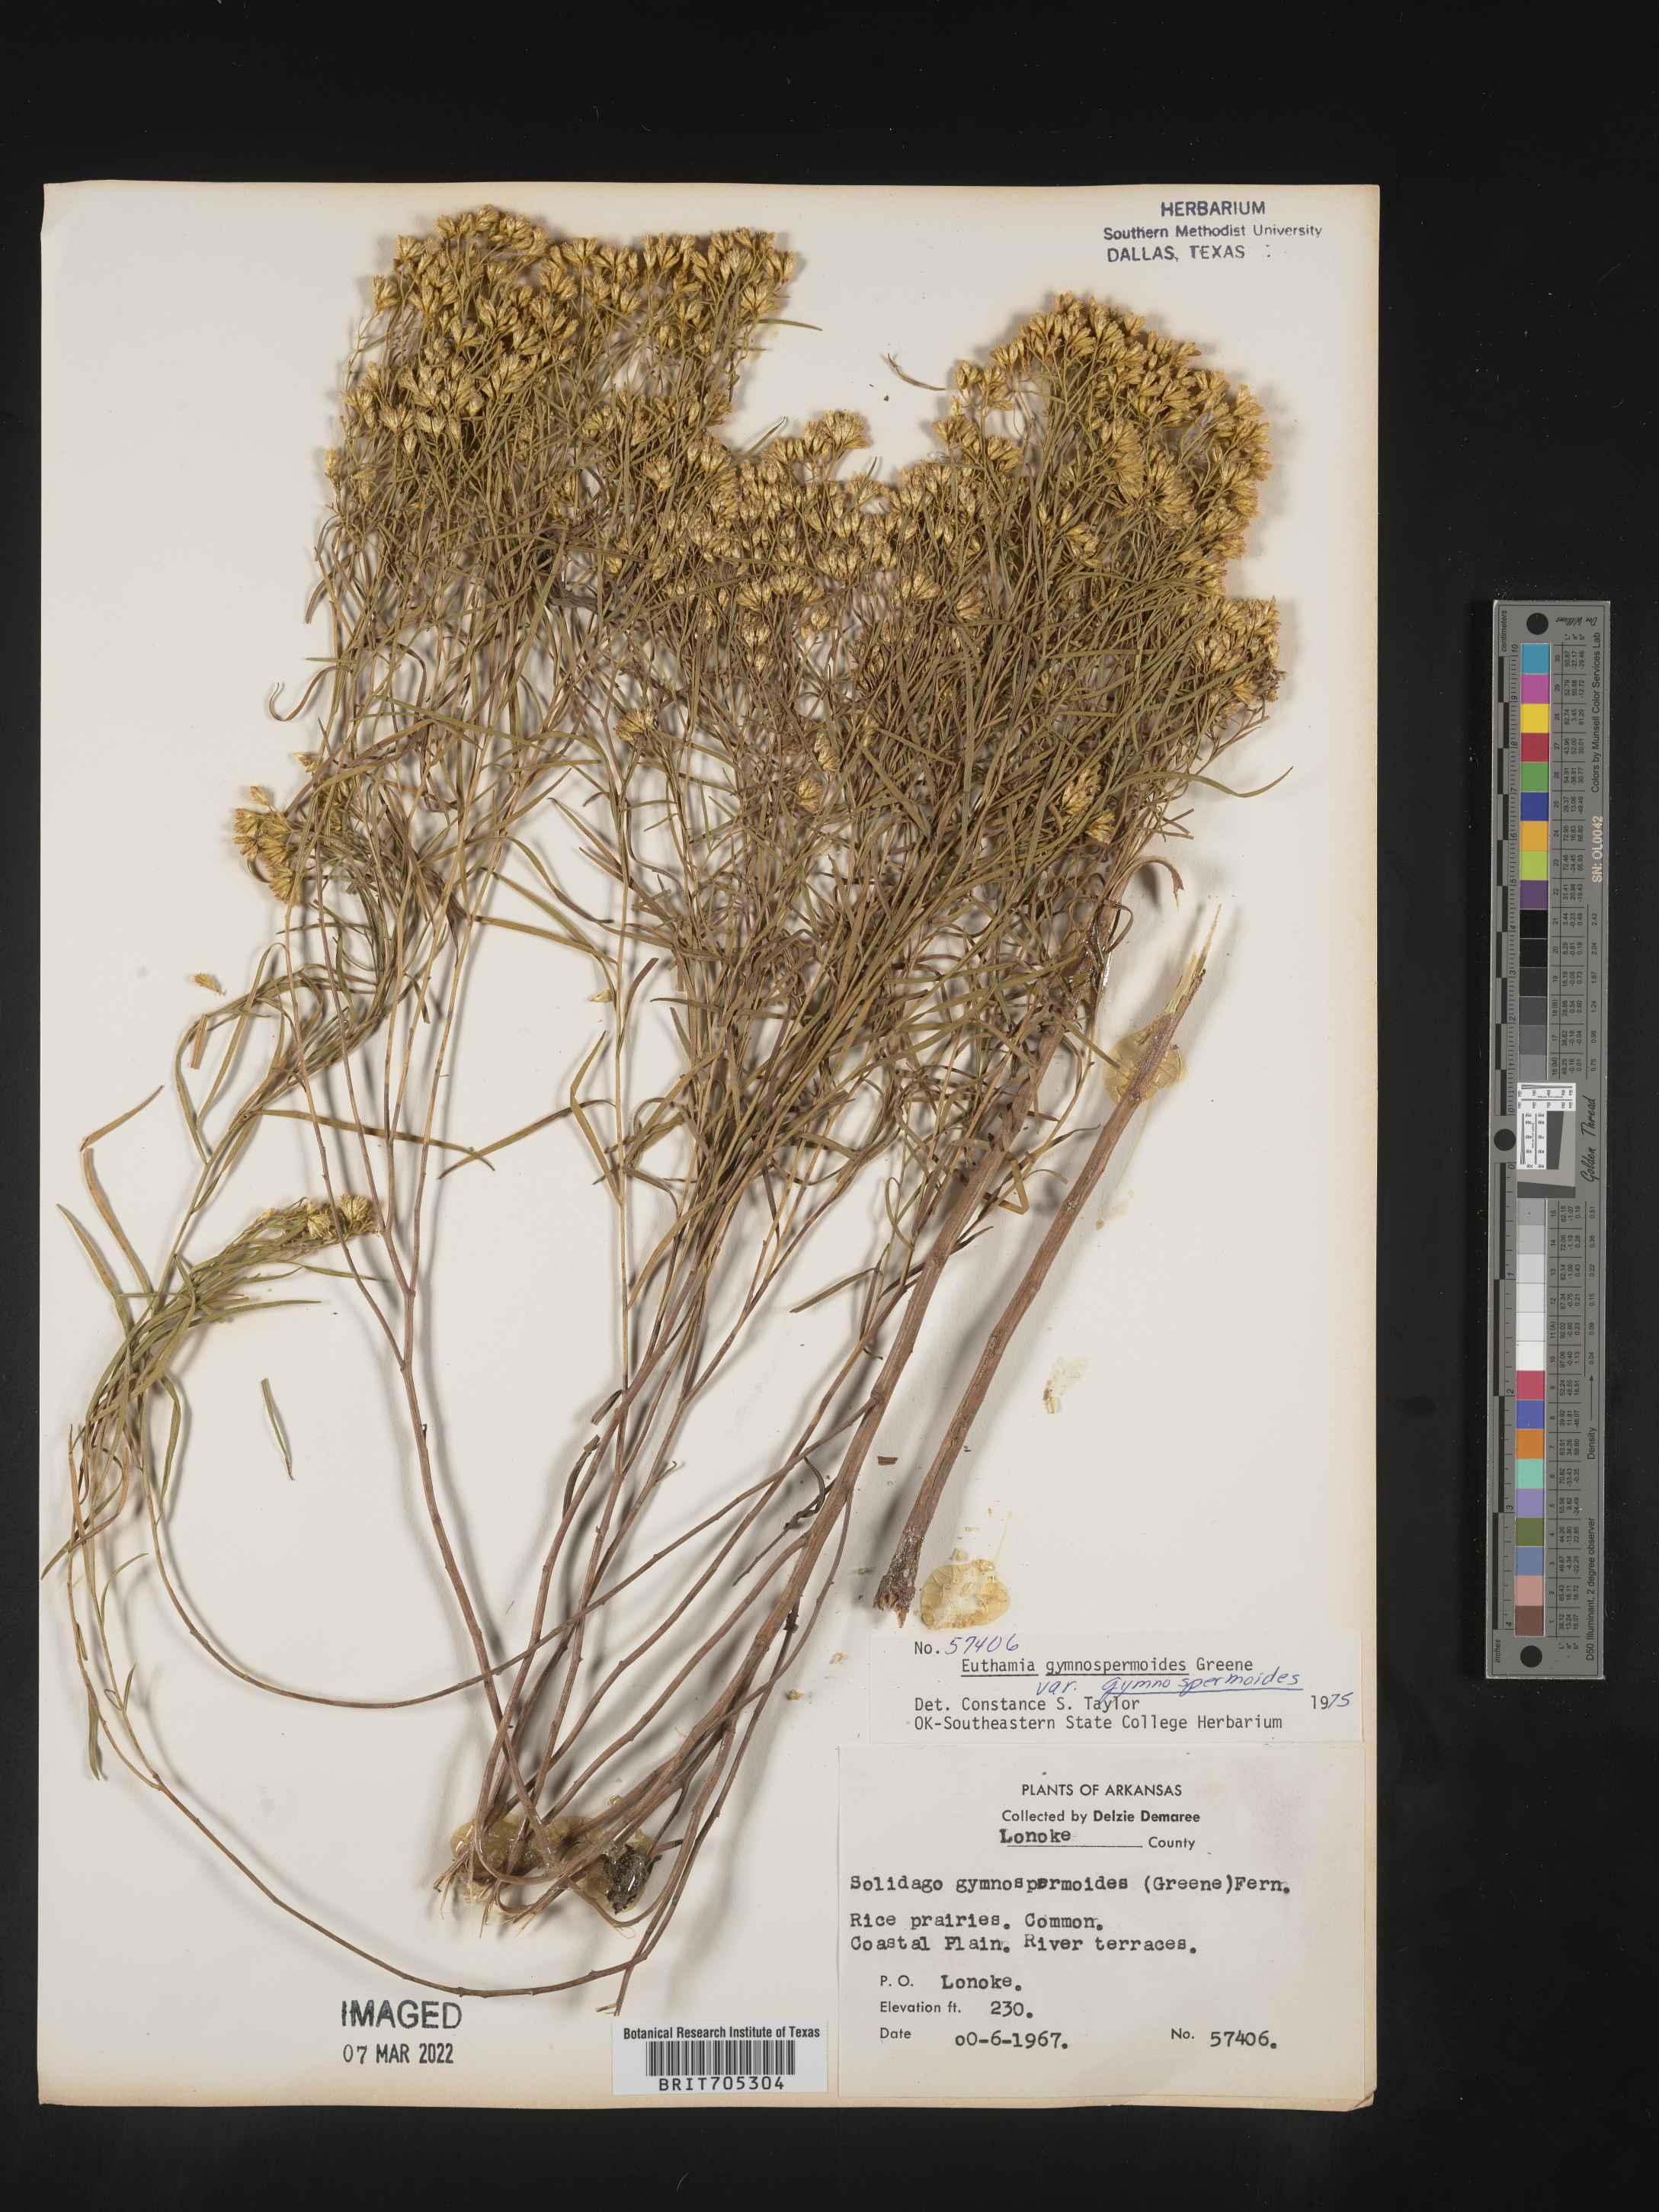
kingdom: Plantae
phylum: Tracheophyta
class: Magnoliopsida
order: Asterales
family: Asteraceae
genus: Euthamia
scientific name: Euthamia gymnospermoides
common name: Great plains goldentop
